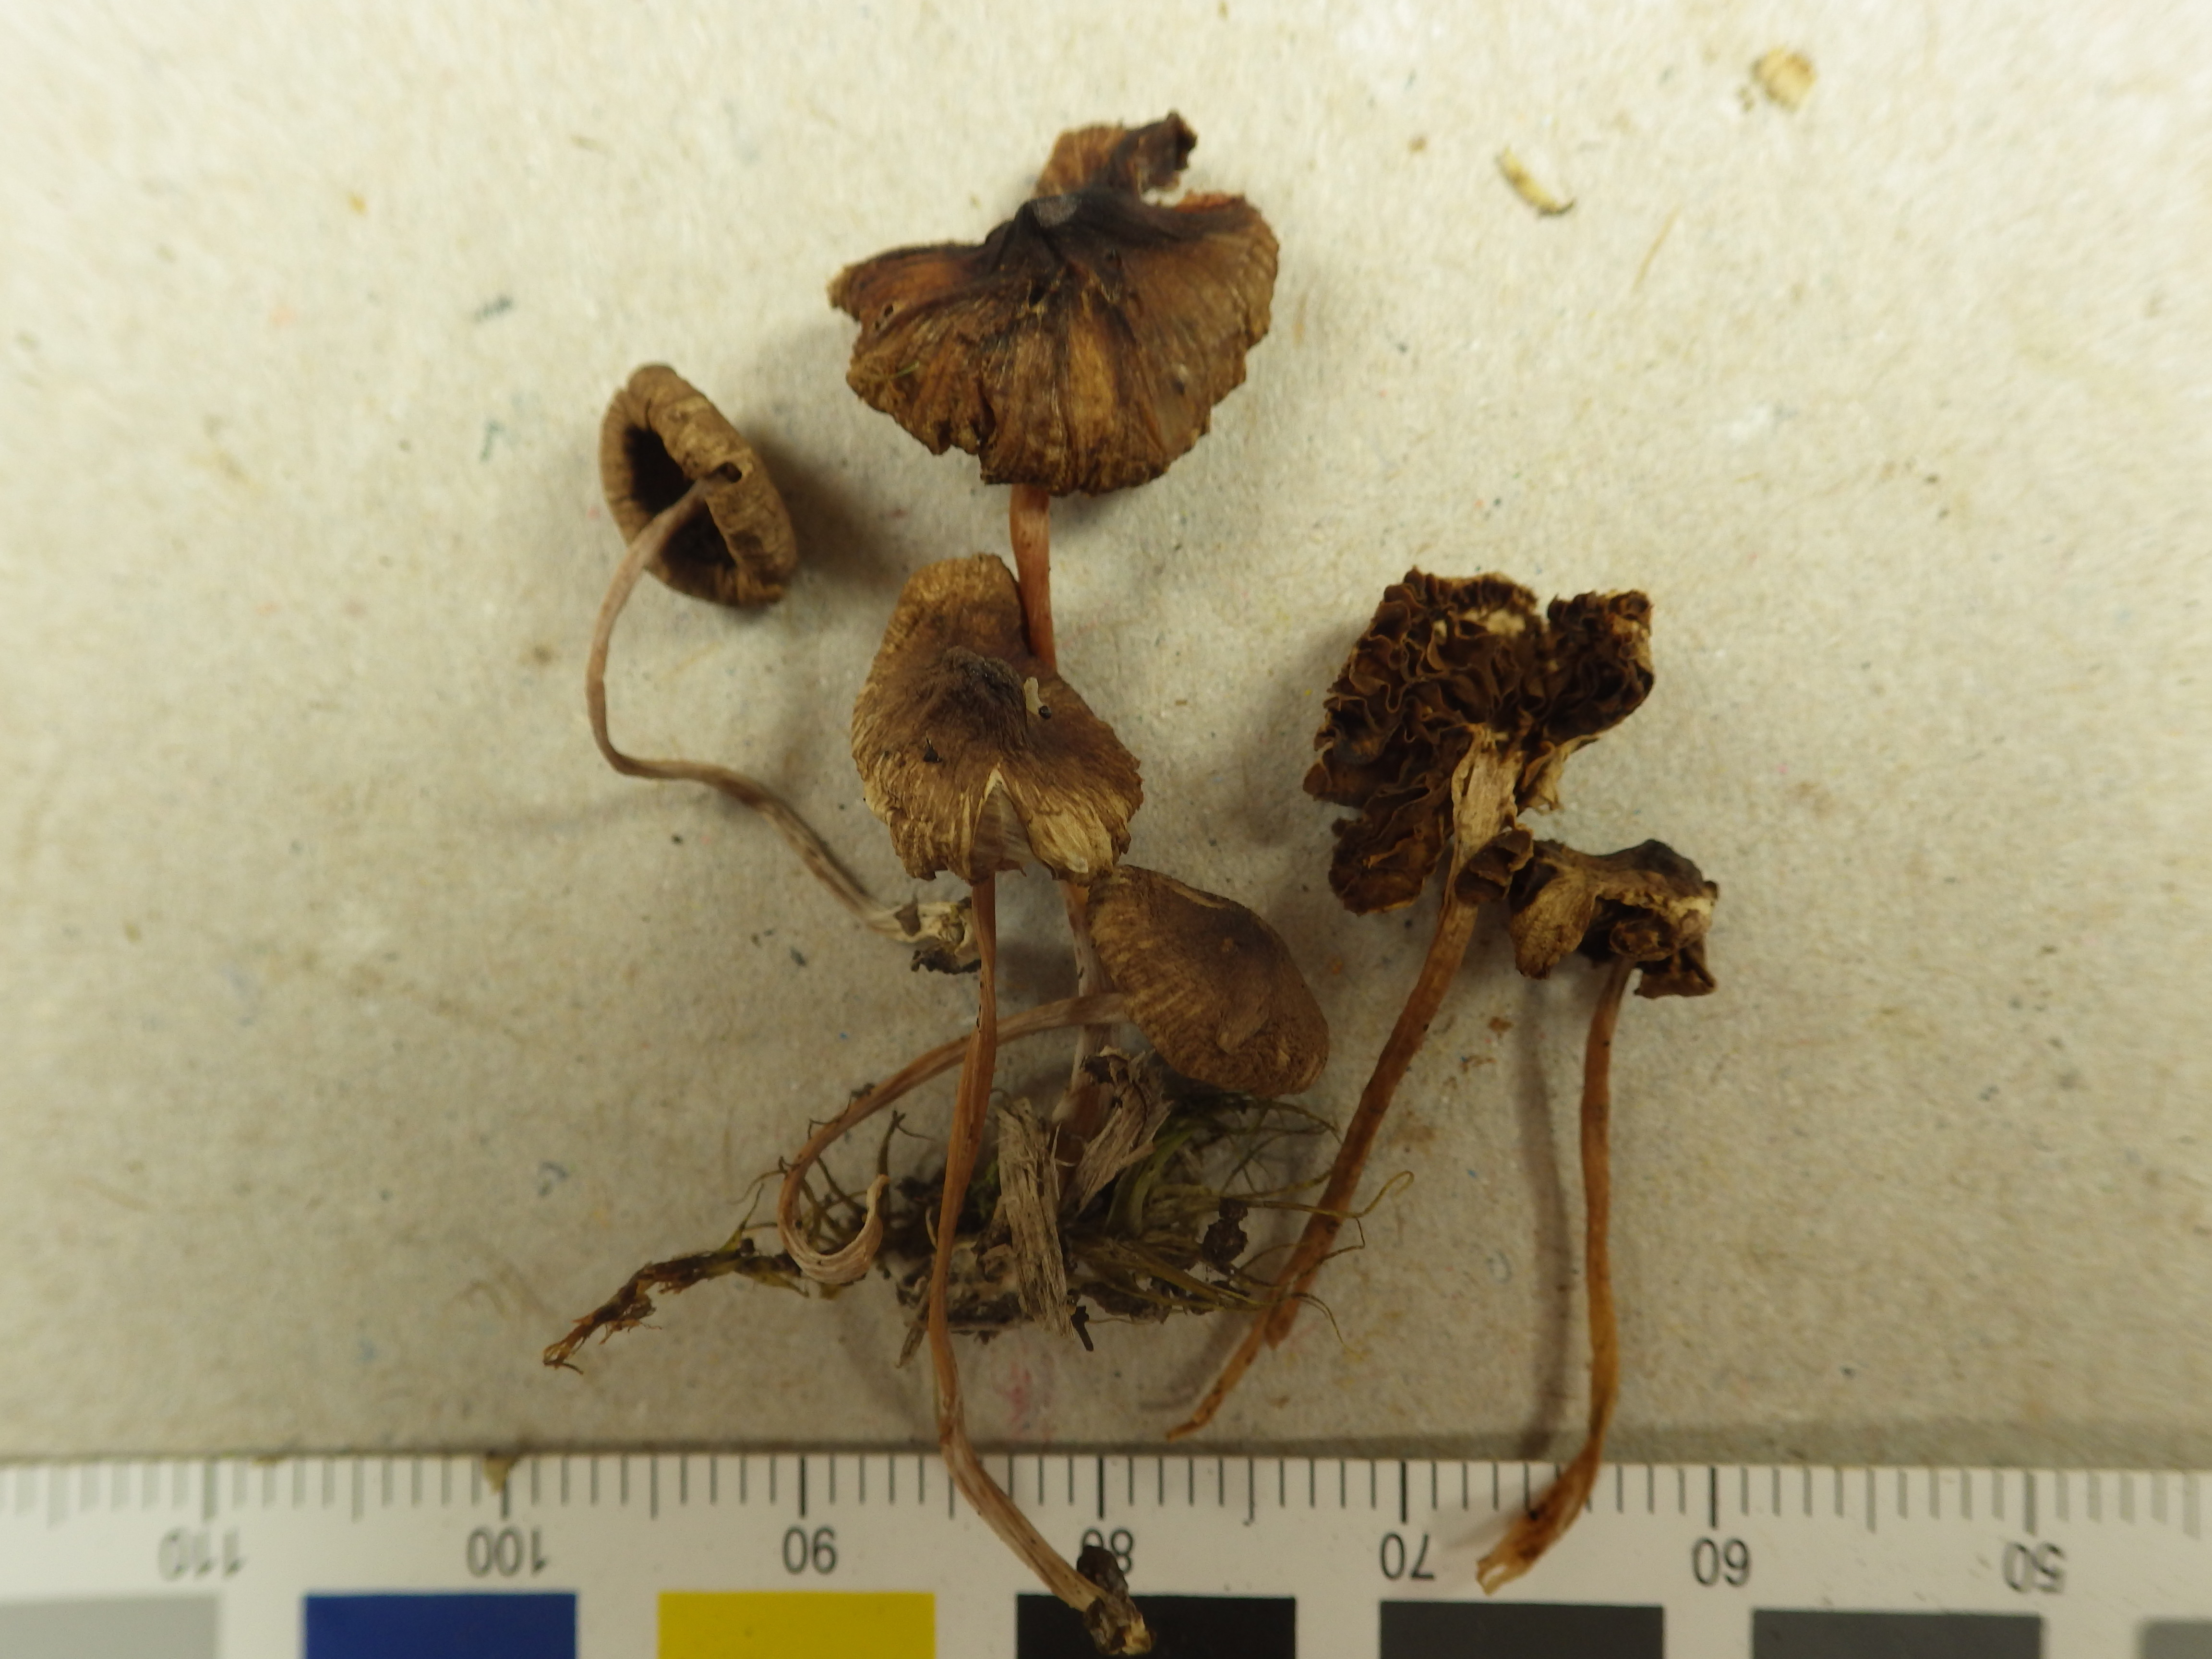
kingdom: Fungi
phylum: Basidiomycota
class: Agaricomycetes
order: Agaricales
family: Inocybaceae
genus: Inocybe
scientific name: Inocybe glabripes
